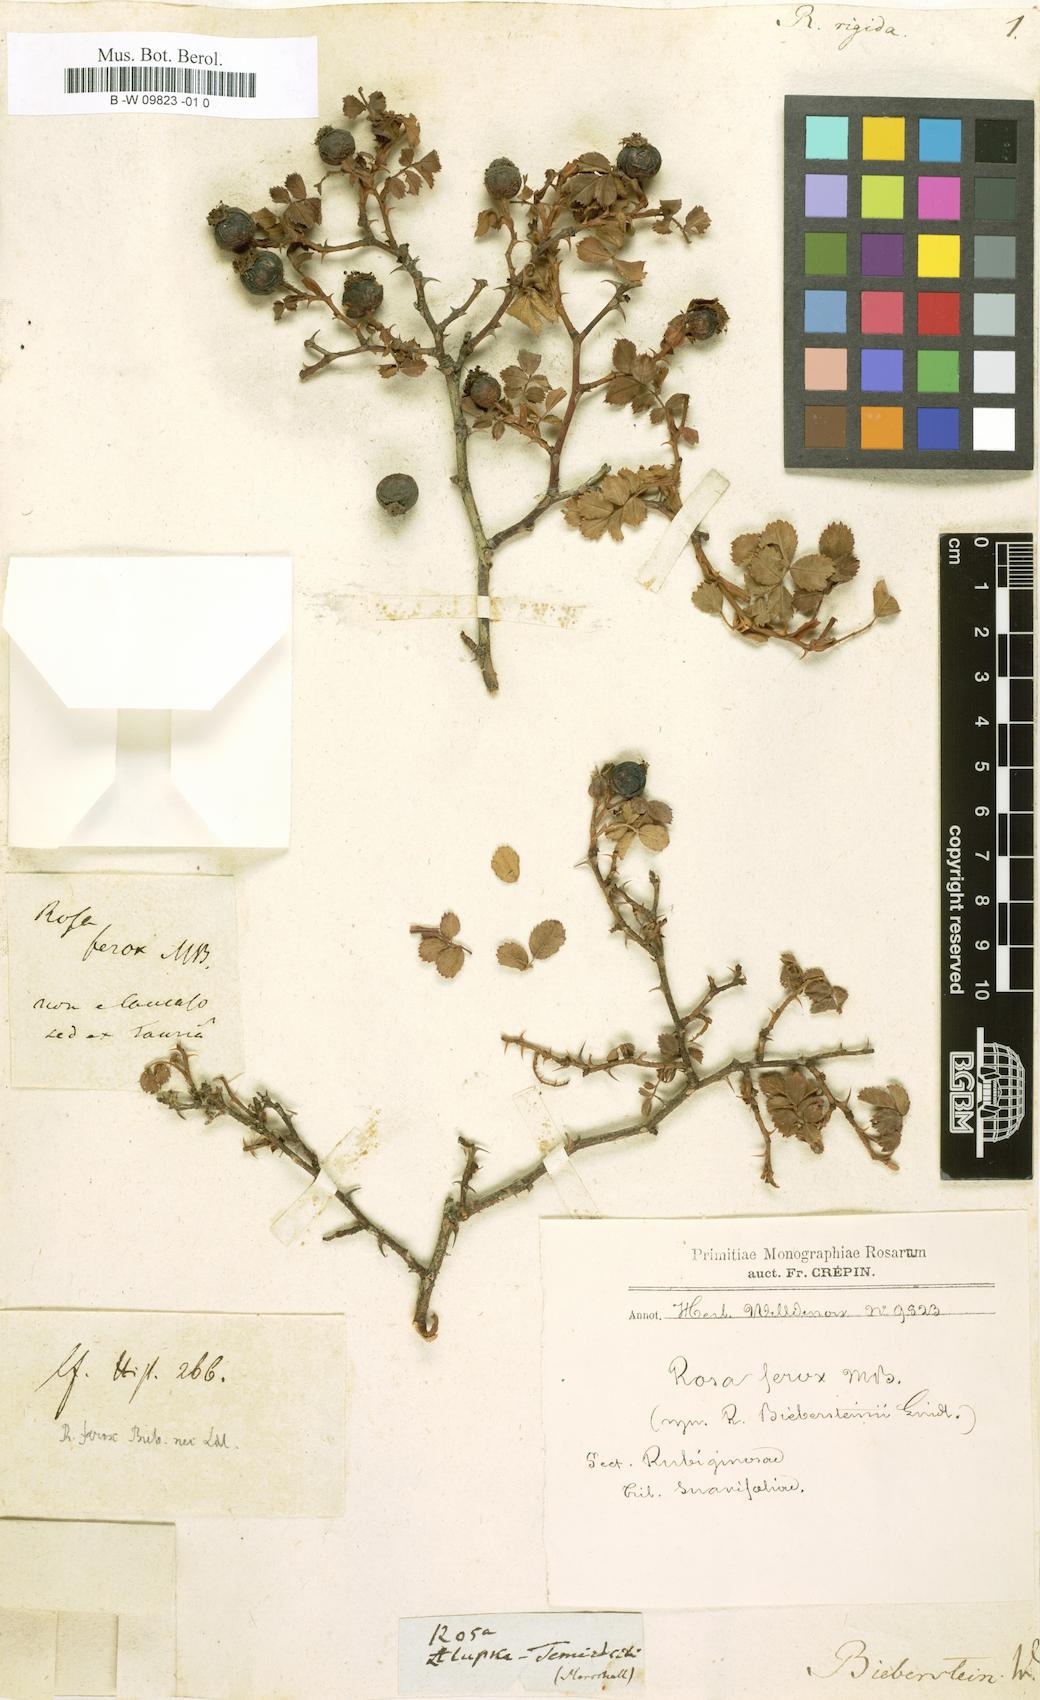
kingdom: Plantae
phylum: Tracheophyta
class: Magnoliopsida
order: Rosales
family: Rosaceae
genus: Rosa
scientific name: Rosa rigida
